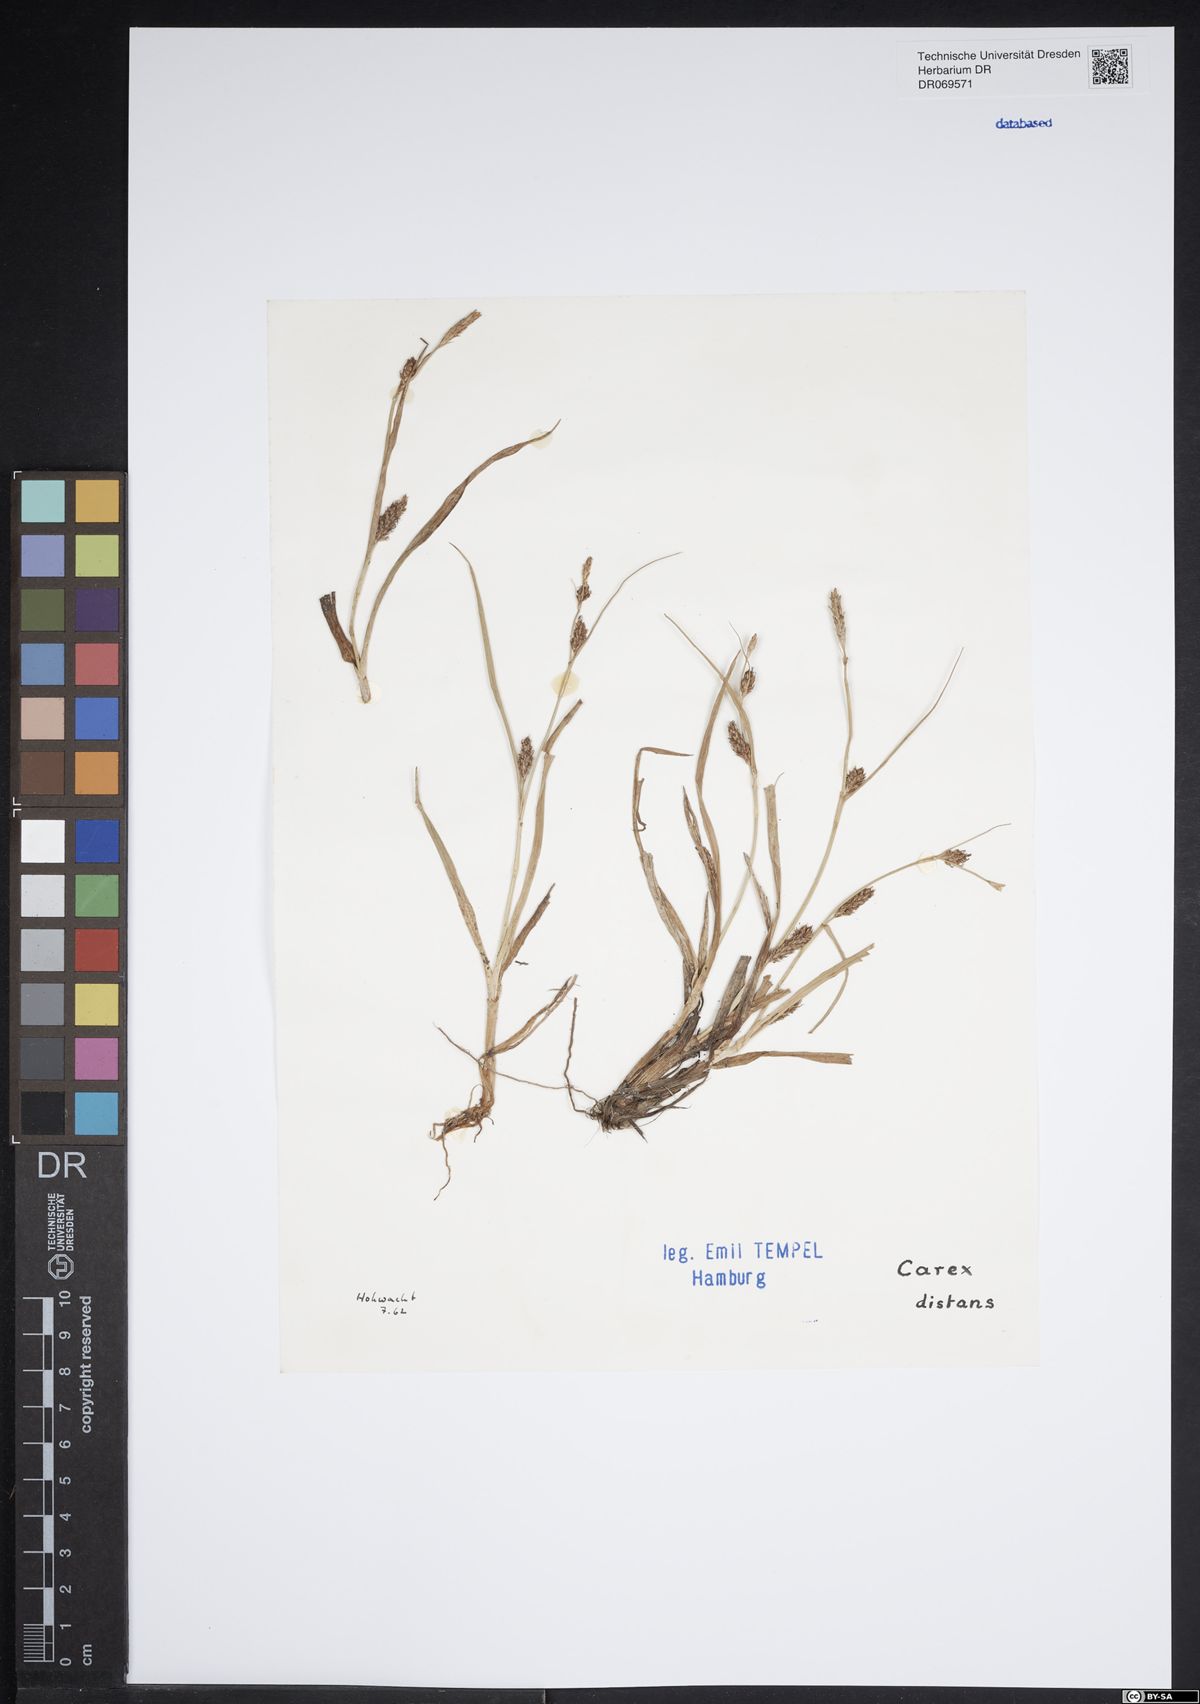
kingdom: Plantae
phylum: Tracheophyta
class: Liliopsida
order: Poales
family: Cyperaceae
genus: Carex
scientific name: Carex distans
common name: Distant sedge
